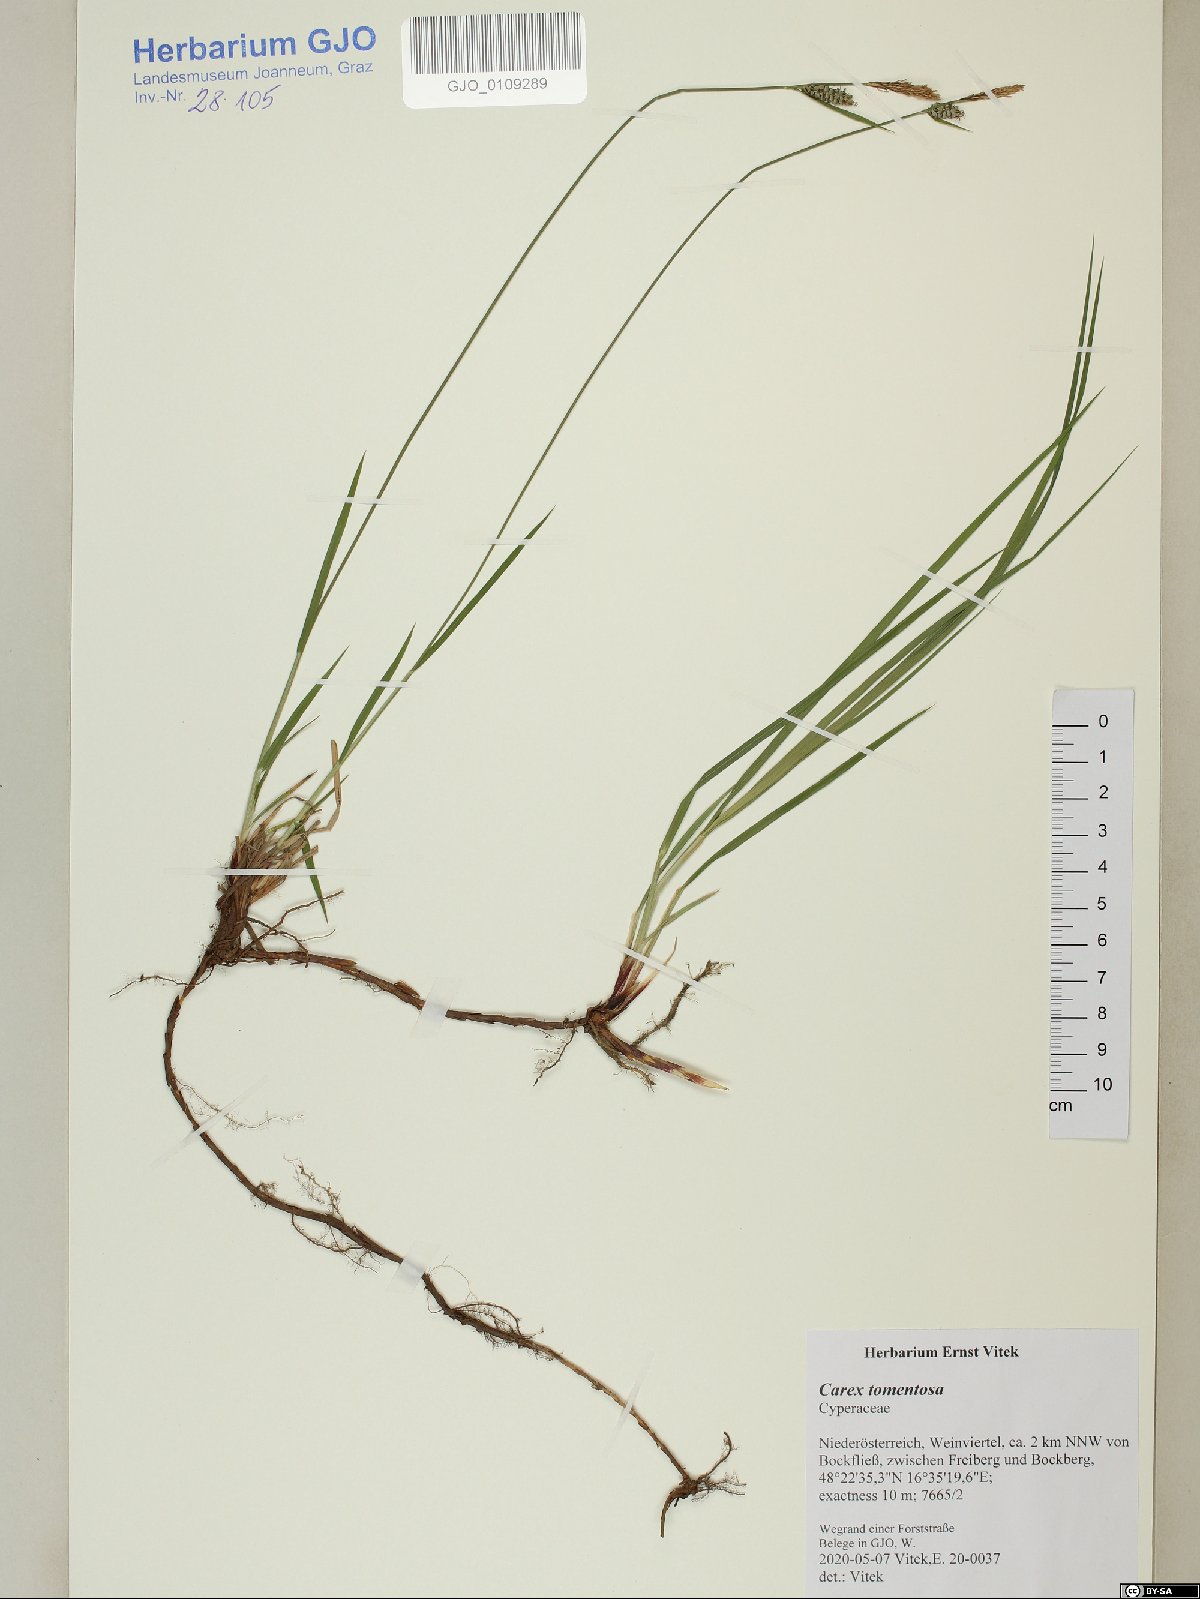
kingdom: Plantae
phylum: Tracheophyta
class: Liliopsida
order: Poales
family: Poaceae
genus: Trisetopsis
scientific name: Trisetopsis leonina
